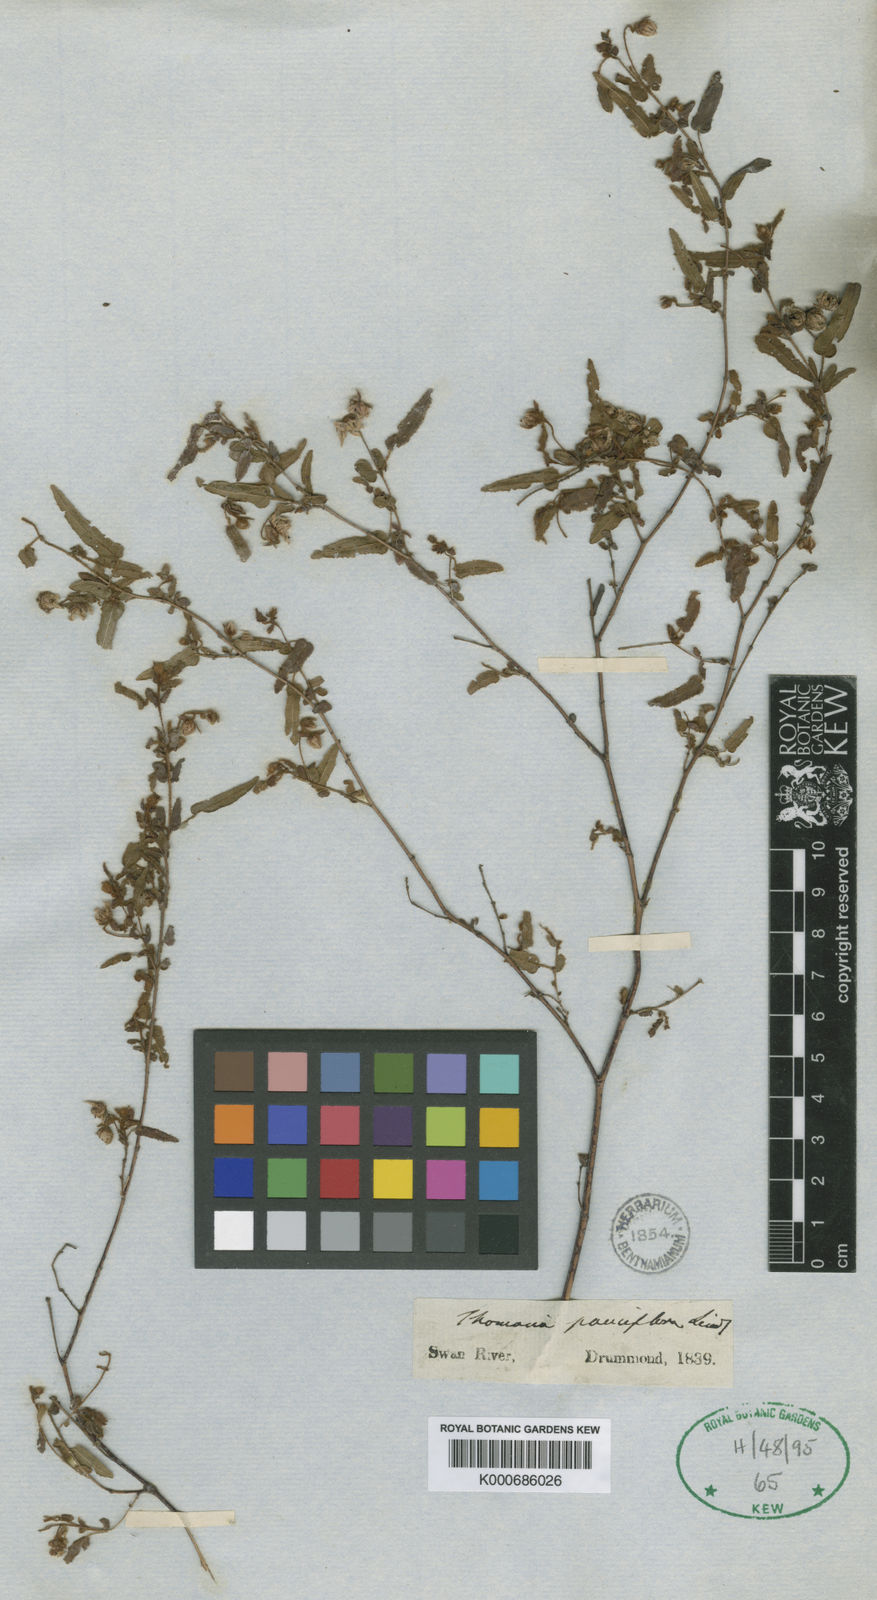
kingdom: Plantae
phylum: Tracheophyta
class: Magnoliopsida
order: Malvales
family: Malvaceae
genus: Thomasia
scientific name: Thomasia pauciflora
